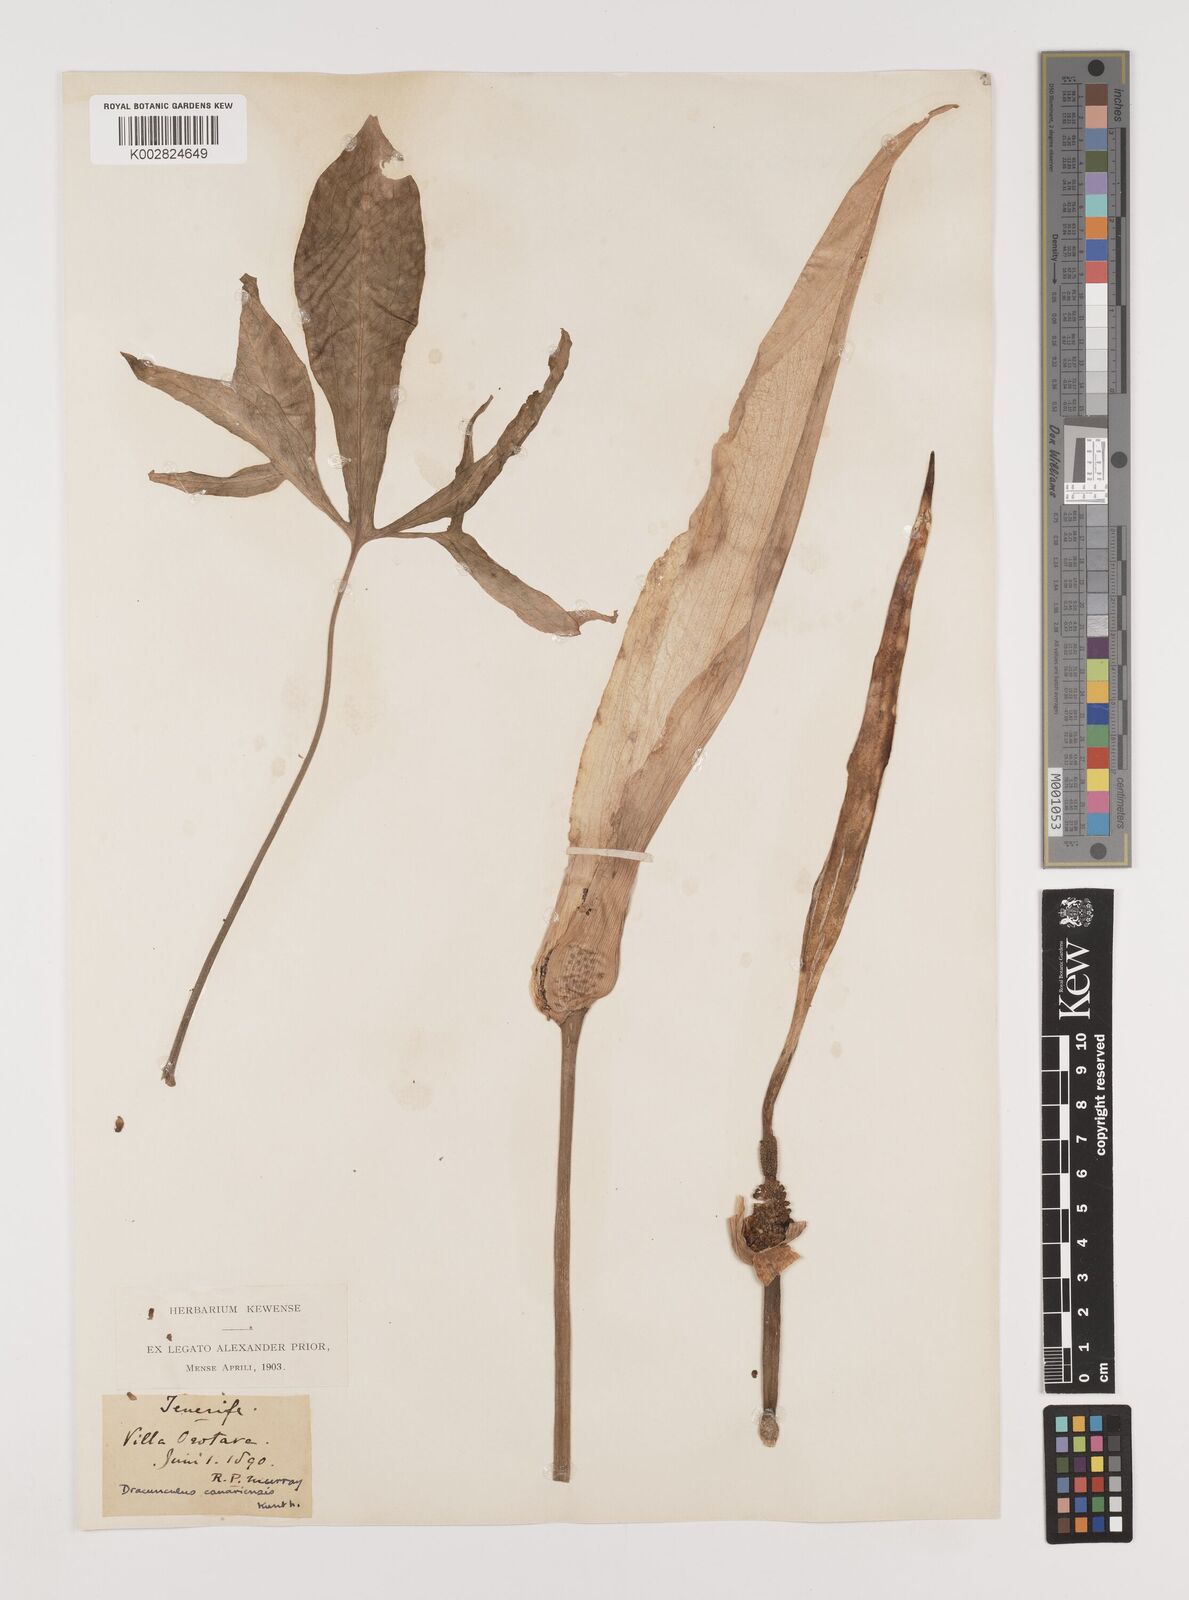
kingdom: Plantae
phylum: Tracheophyta
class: Liliopsida
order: Alismatales
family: Araceae
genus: Dracunculus
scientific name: Dracunculus canariensis
